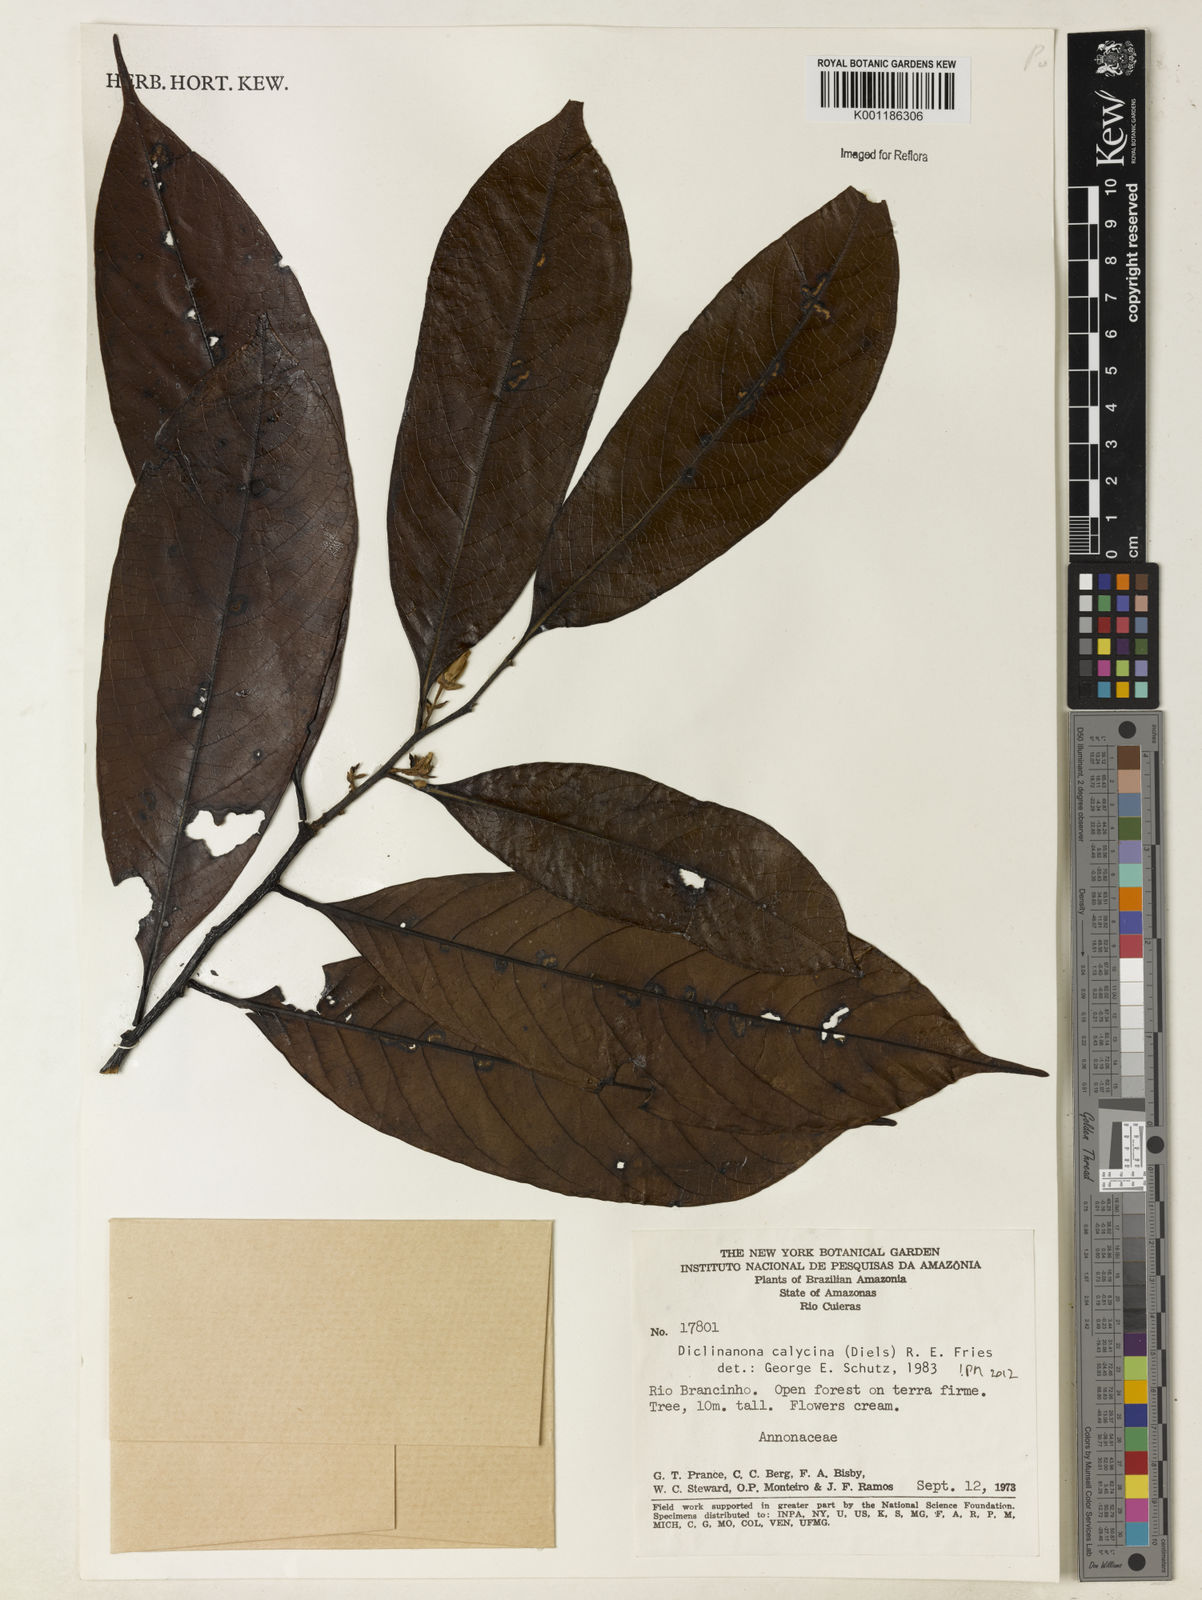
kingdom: Plantae
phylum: Tracheophyta
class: Magnoliopsida
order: Magnoliales
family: Annonaceae
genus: Diclinanona
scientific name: Diclinanona calycina
